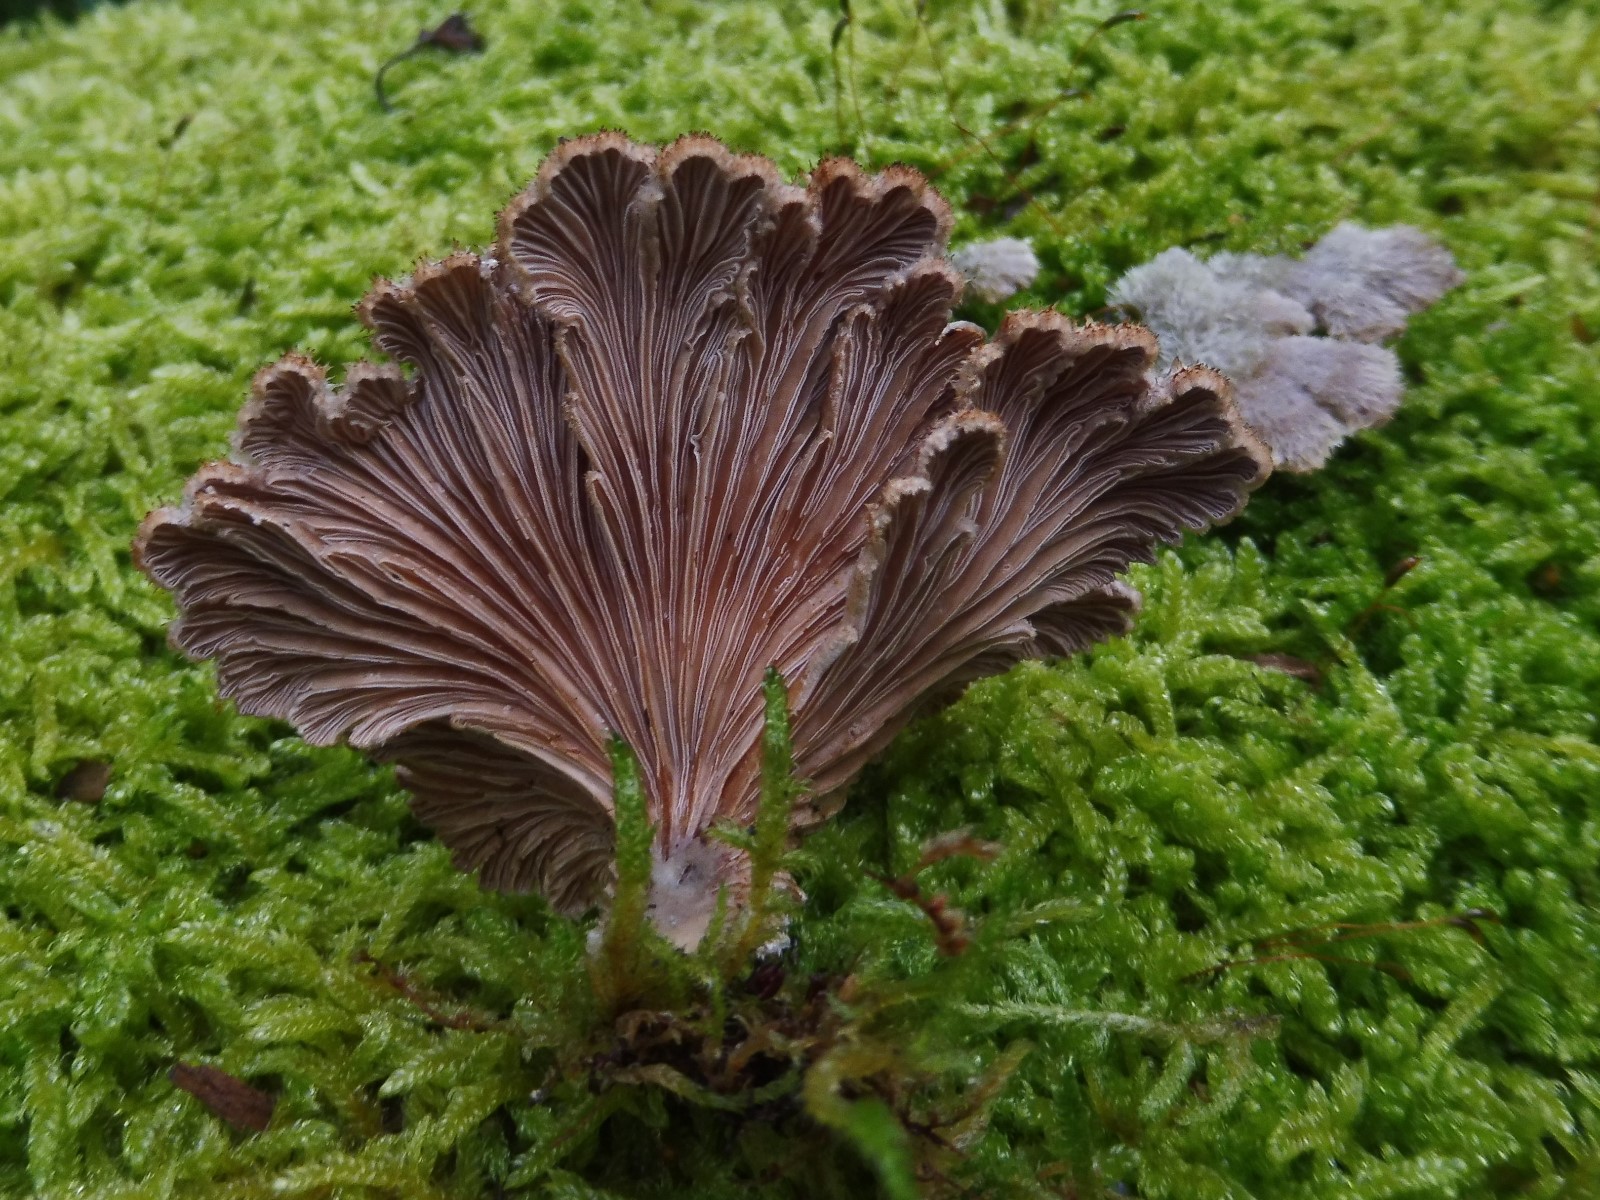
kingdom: Fungi
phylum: Basidiomycota
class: Agaricomycetes
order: Agaricales
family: Schizophyllaceae
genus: Schizophyllum
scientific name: Schizophyllum commune
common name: kløvblad
